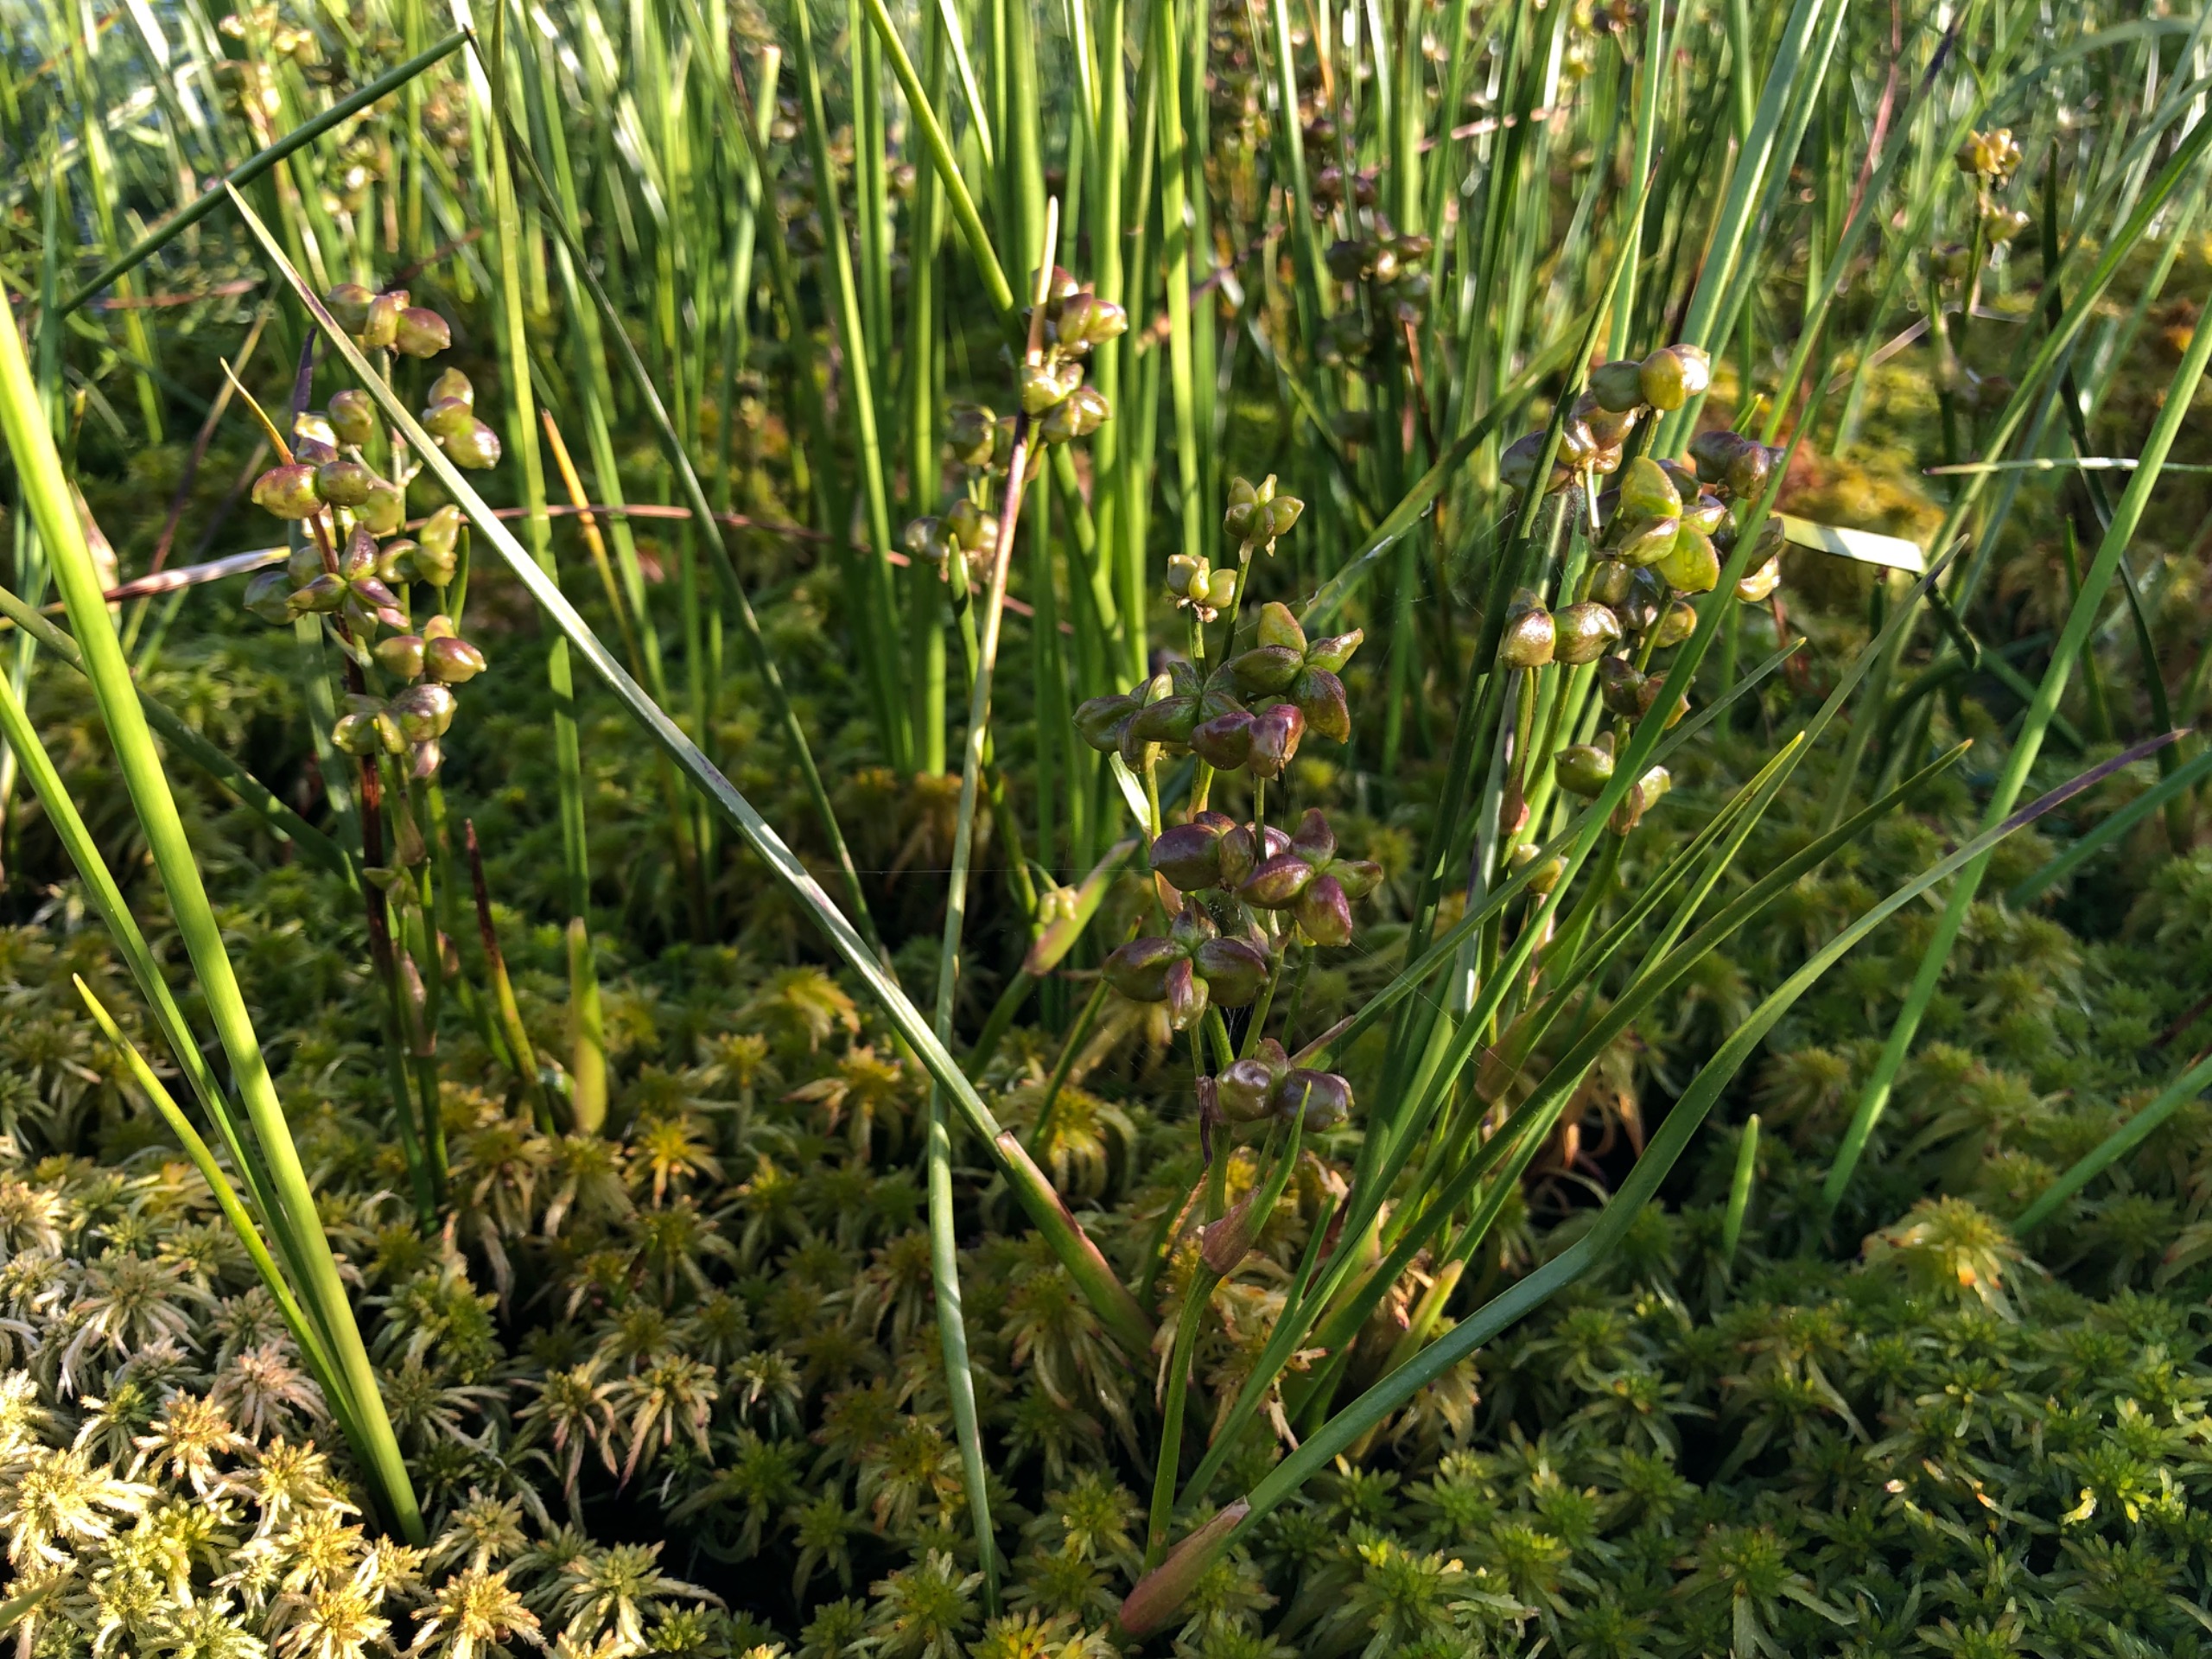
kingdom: Plantae
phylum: Tracheophyta
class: Liliopsida
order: Alismatales
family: Scheuchzeriaceae
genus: Scheuchzeria
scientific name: Scheuchzeria palustris
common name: Blomstersiv
